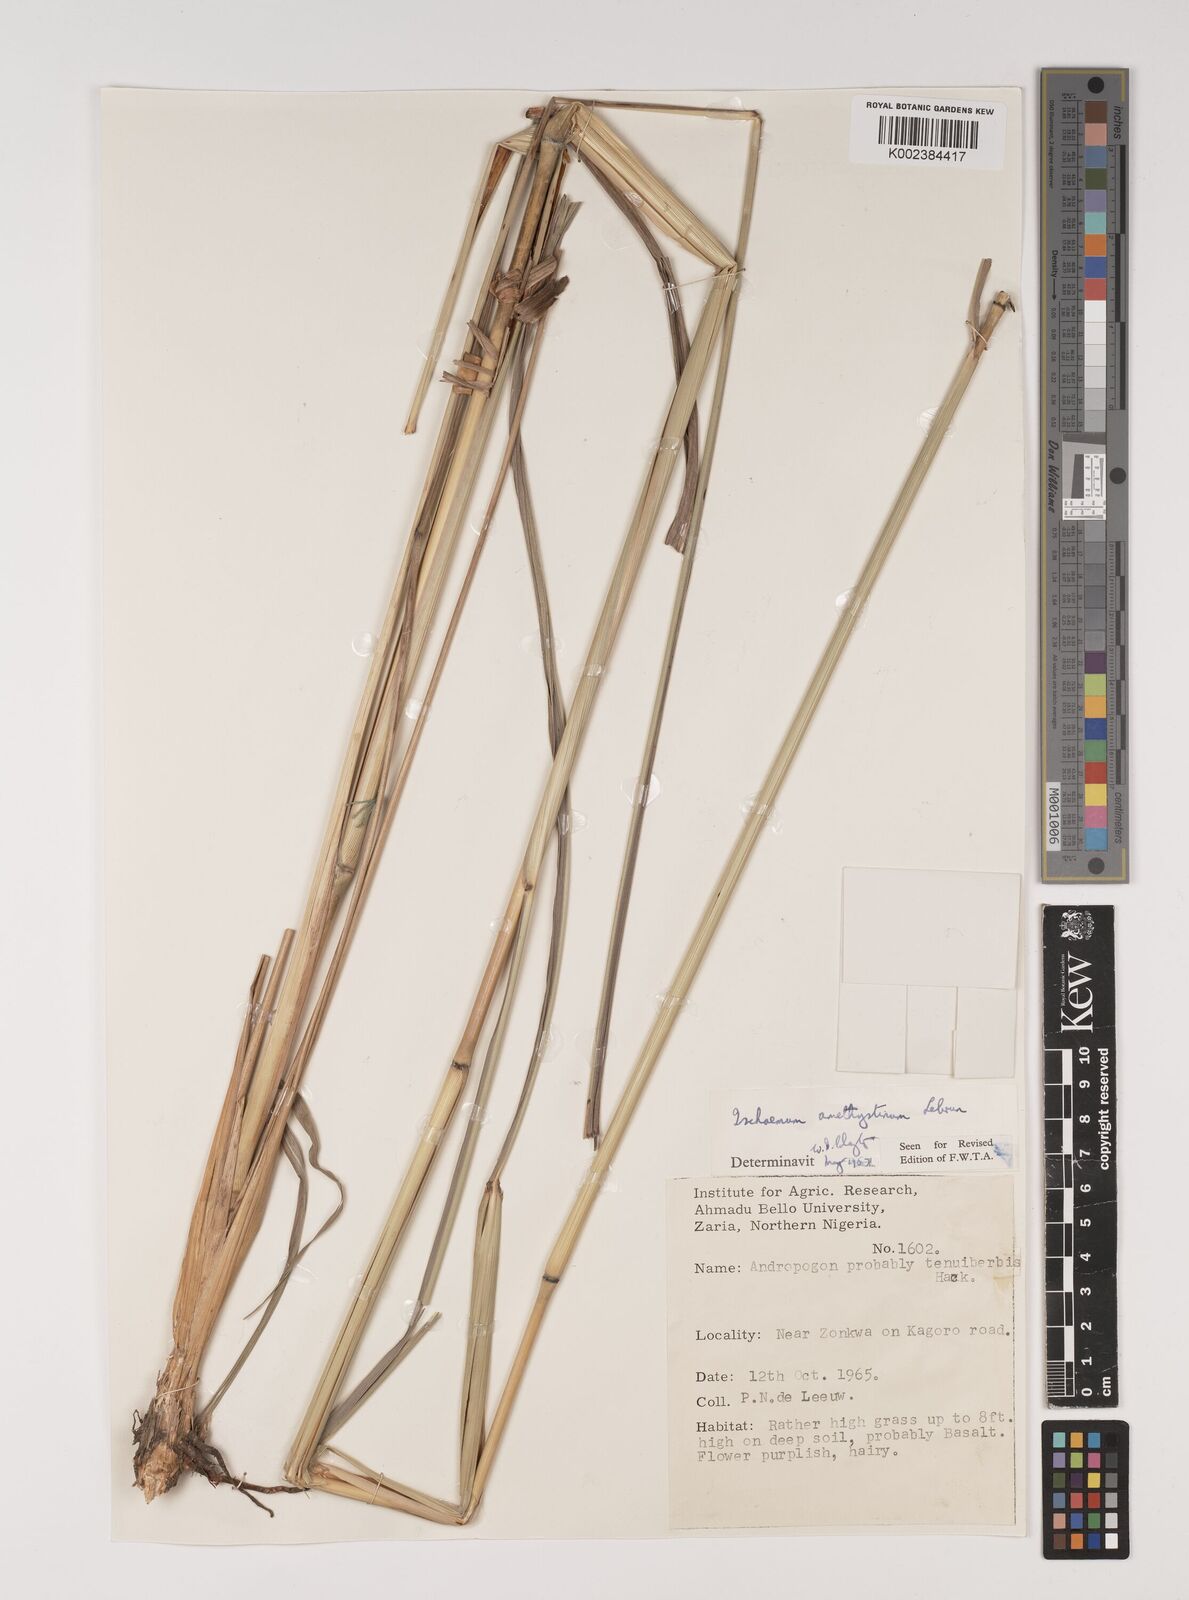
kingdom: Plantae
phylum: Tracheophyta
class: Liliopsida
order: Poales
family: Poaceae
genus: Ischaemum
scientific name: Ischaemum amethystinum
